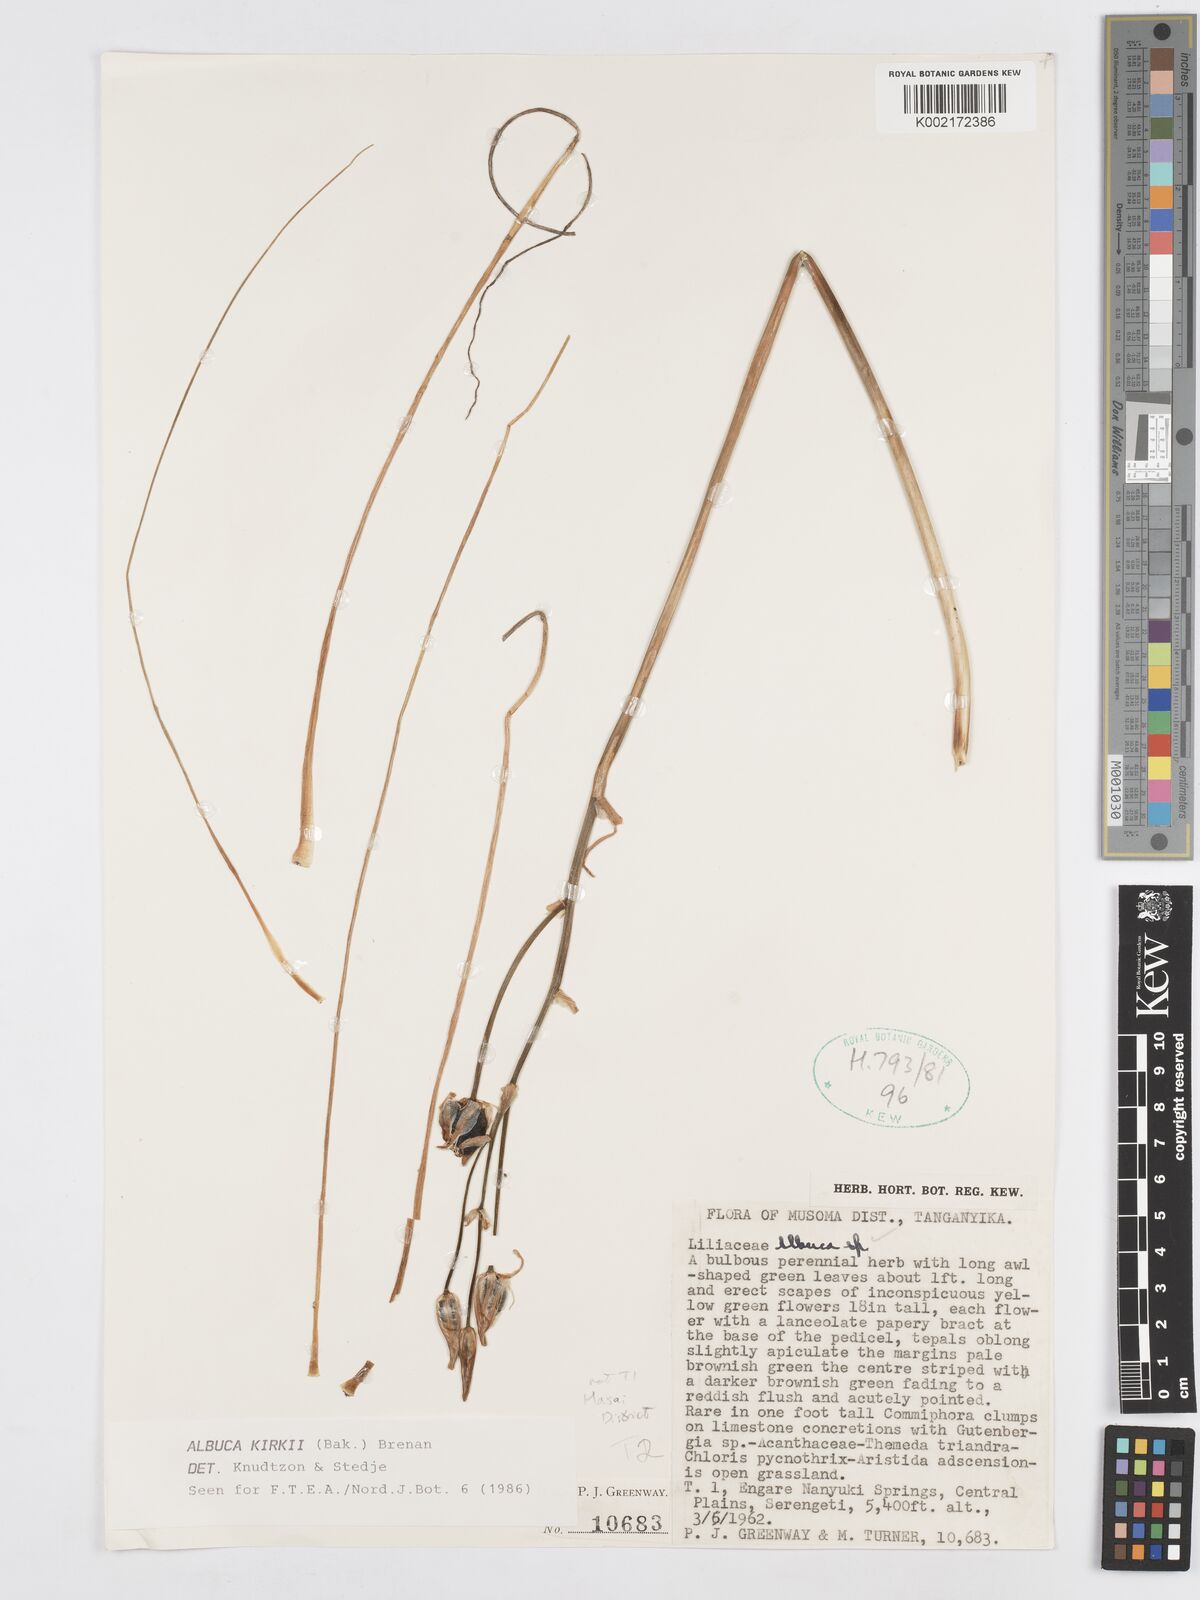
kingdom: Plantae
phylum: Tracheophyta
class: Liliopsida
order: Asparagales
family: Asparagaceae
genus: Albuca
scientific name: Albuca kirkii
